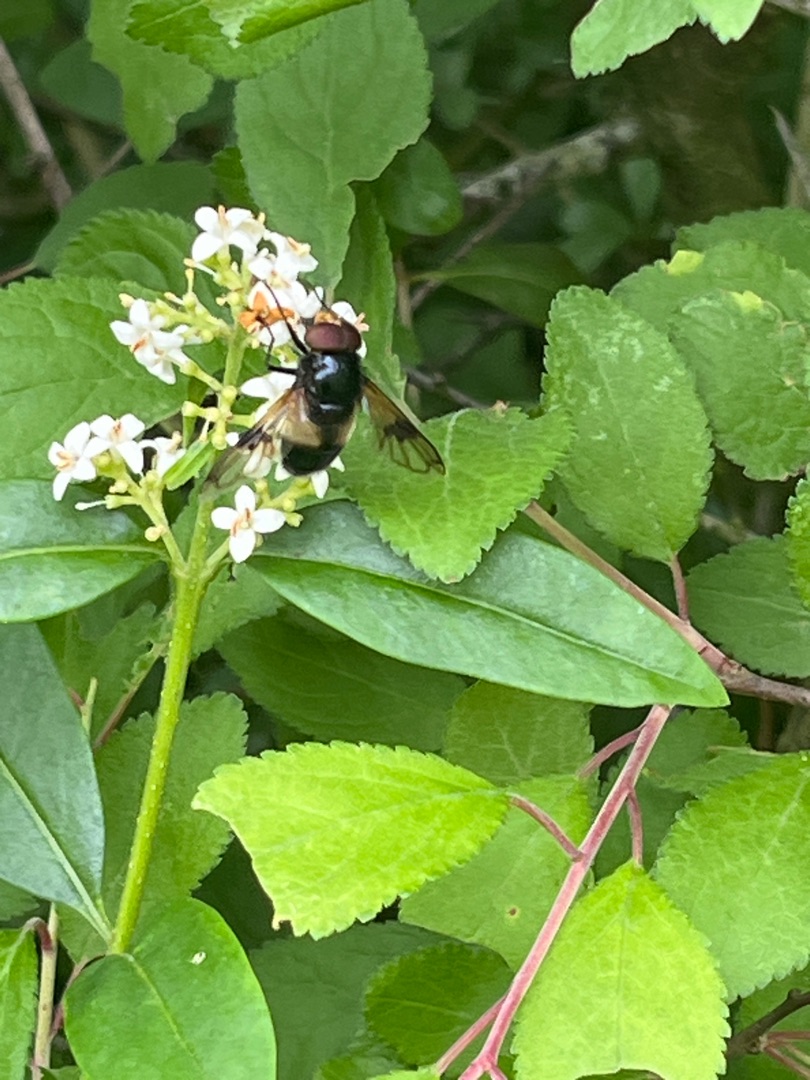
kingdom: Animalia
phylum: Arthropoda
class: Insecta
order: Diptera
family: Syrphidae
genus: Volucella
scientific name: Volucella pellucens
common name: Hvidbåndet humlesvirreflue
